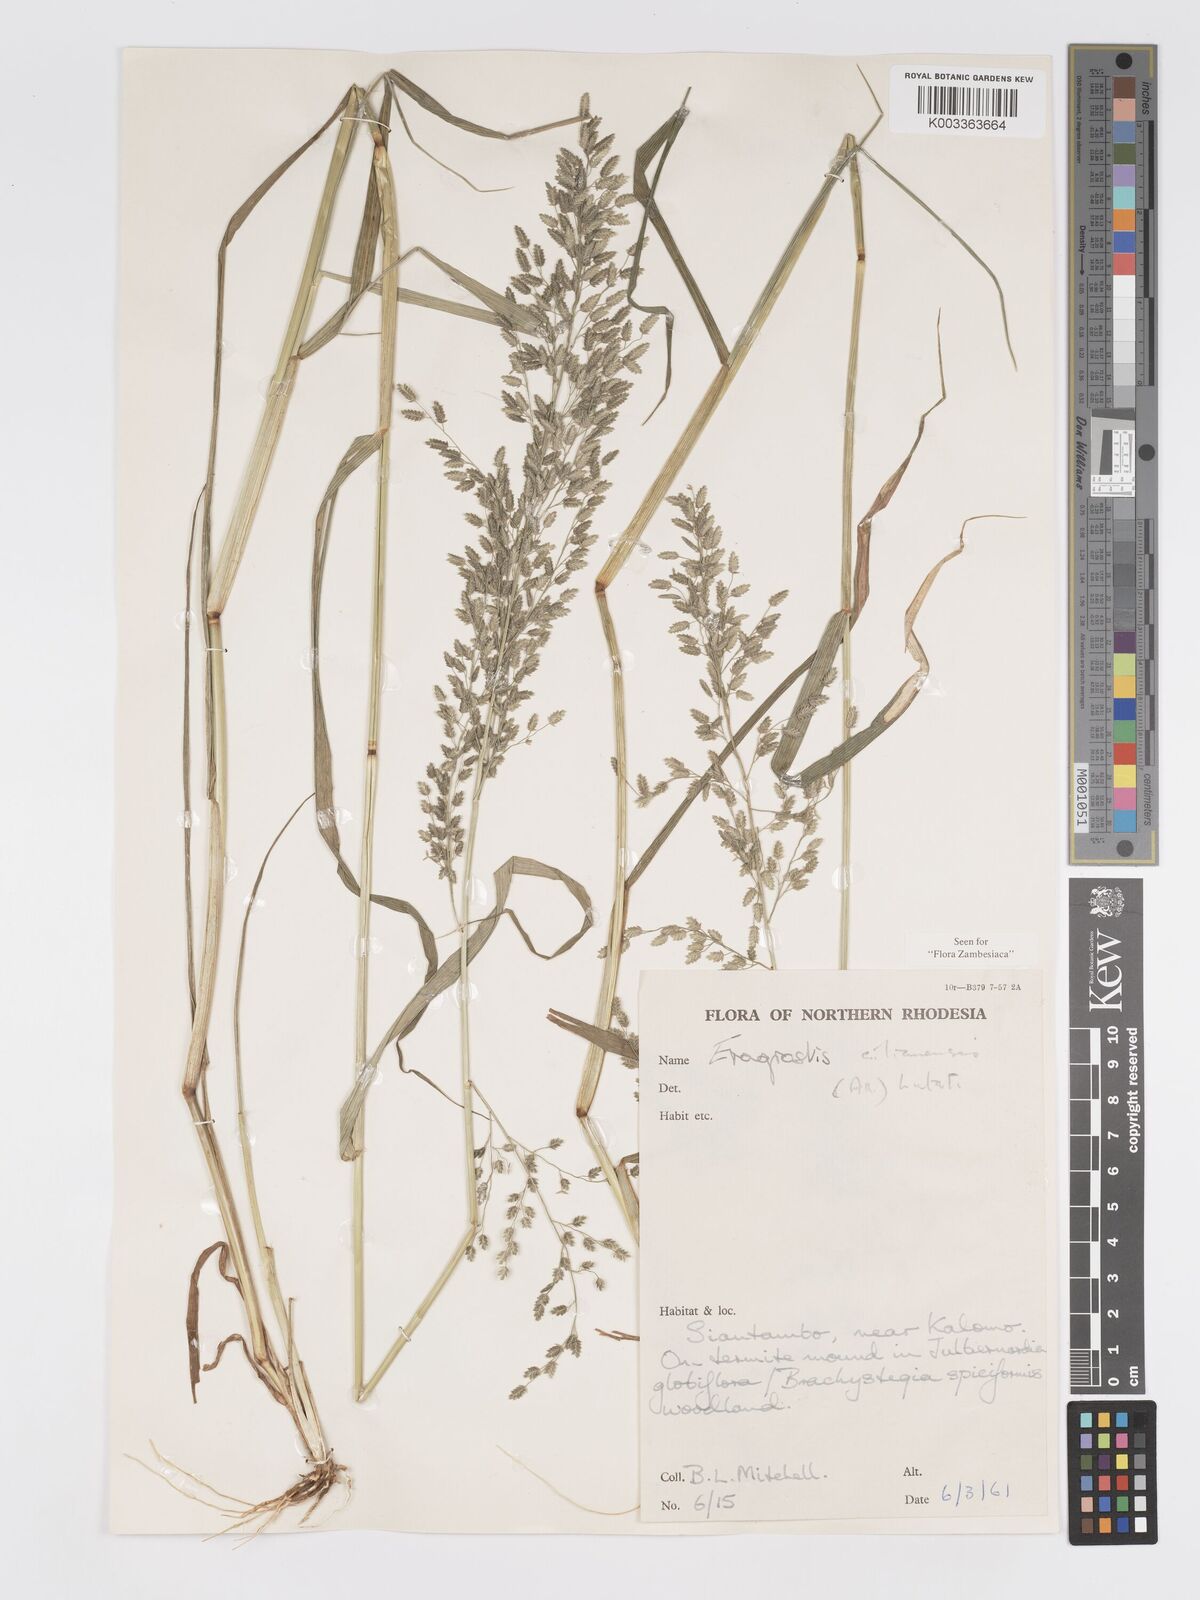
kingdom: Plantae
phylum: Tracheophyta
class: Liliopsida
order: Poales
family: Poaceae
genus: Eragrostis
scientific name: Eragrostis cilianensis
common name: Stinkgrass
